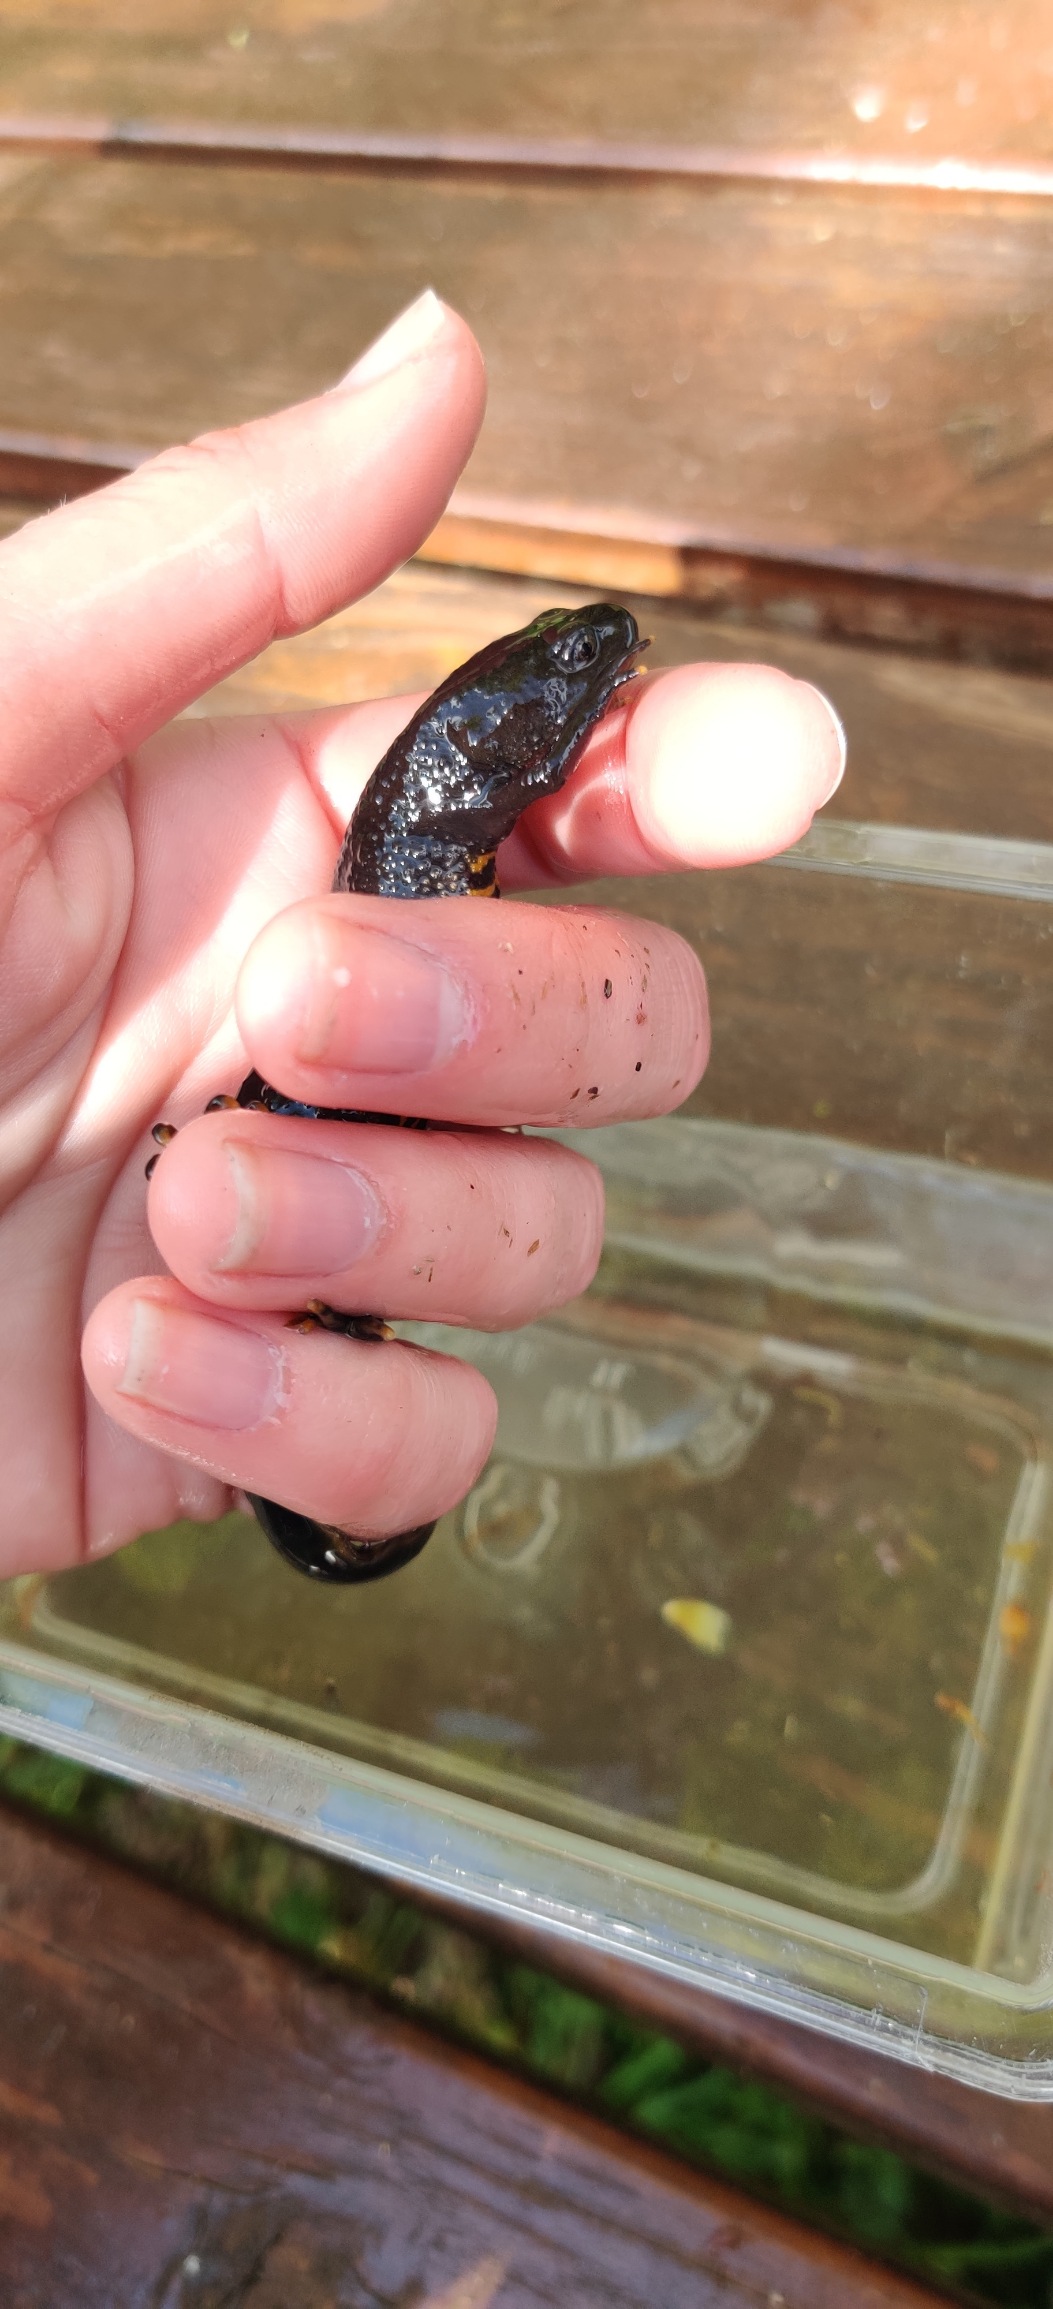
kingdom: Animalia
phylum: Chordata
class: Amphibia
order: Caudata
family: Salamandridae
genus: Triturus
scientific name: Triturus cristatus
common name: Stor vandsalamander
